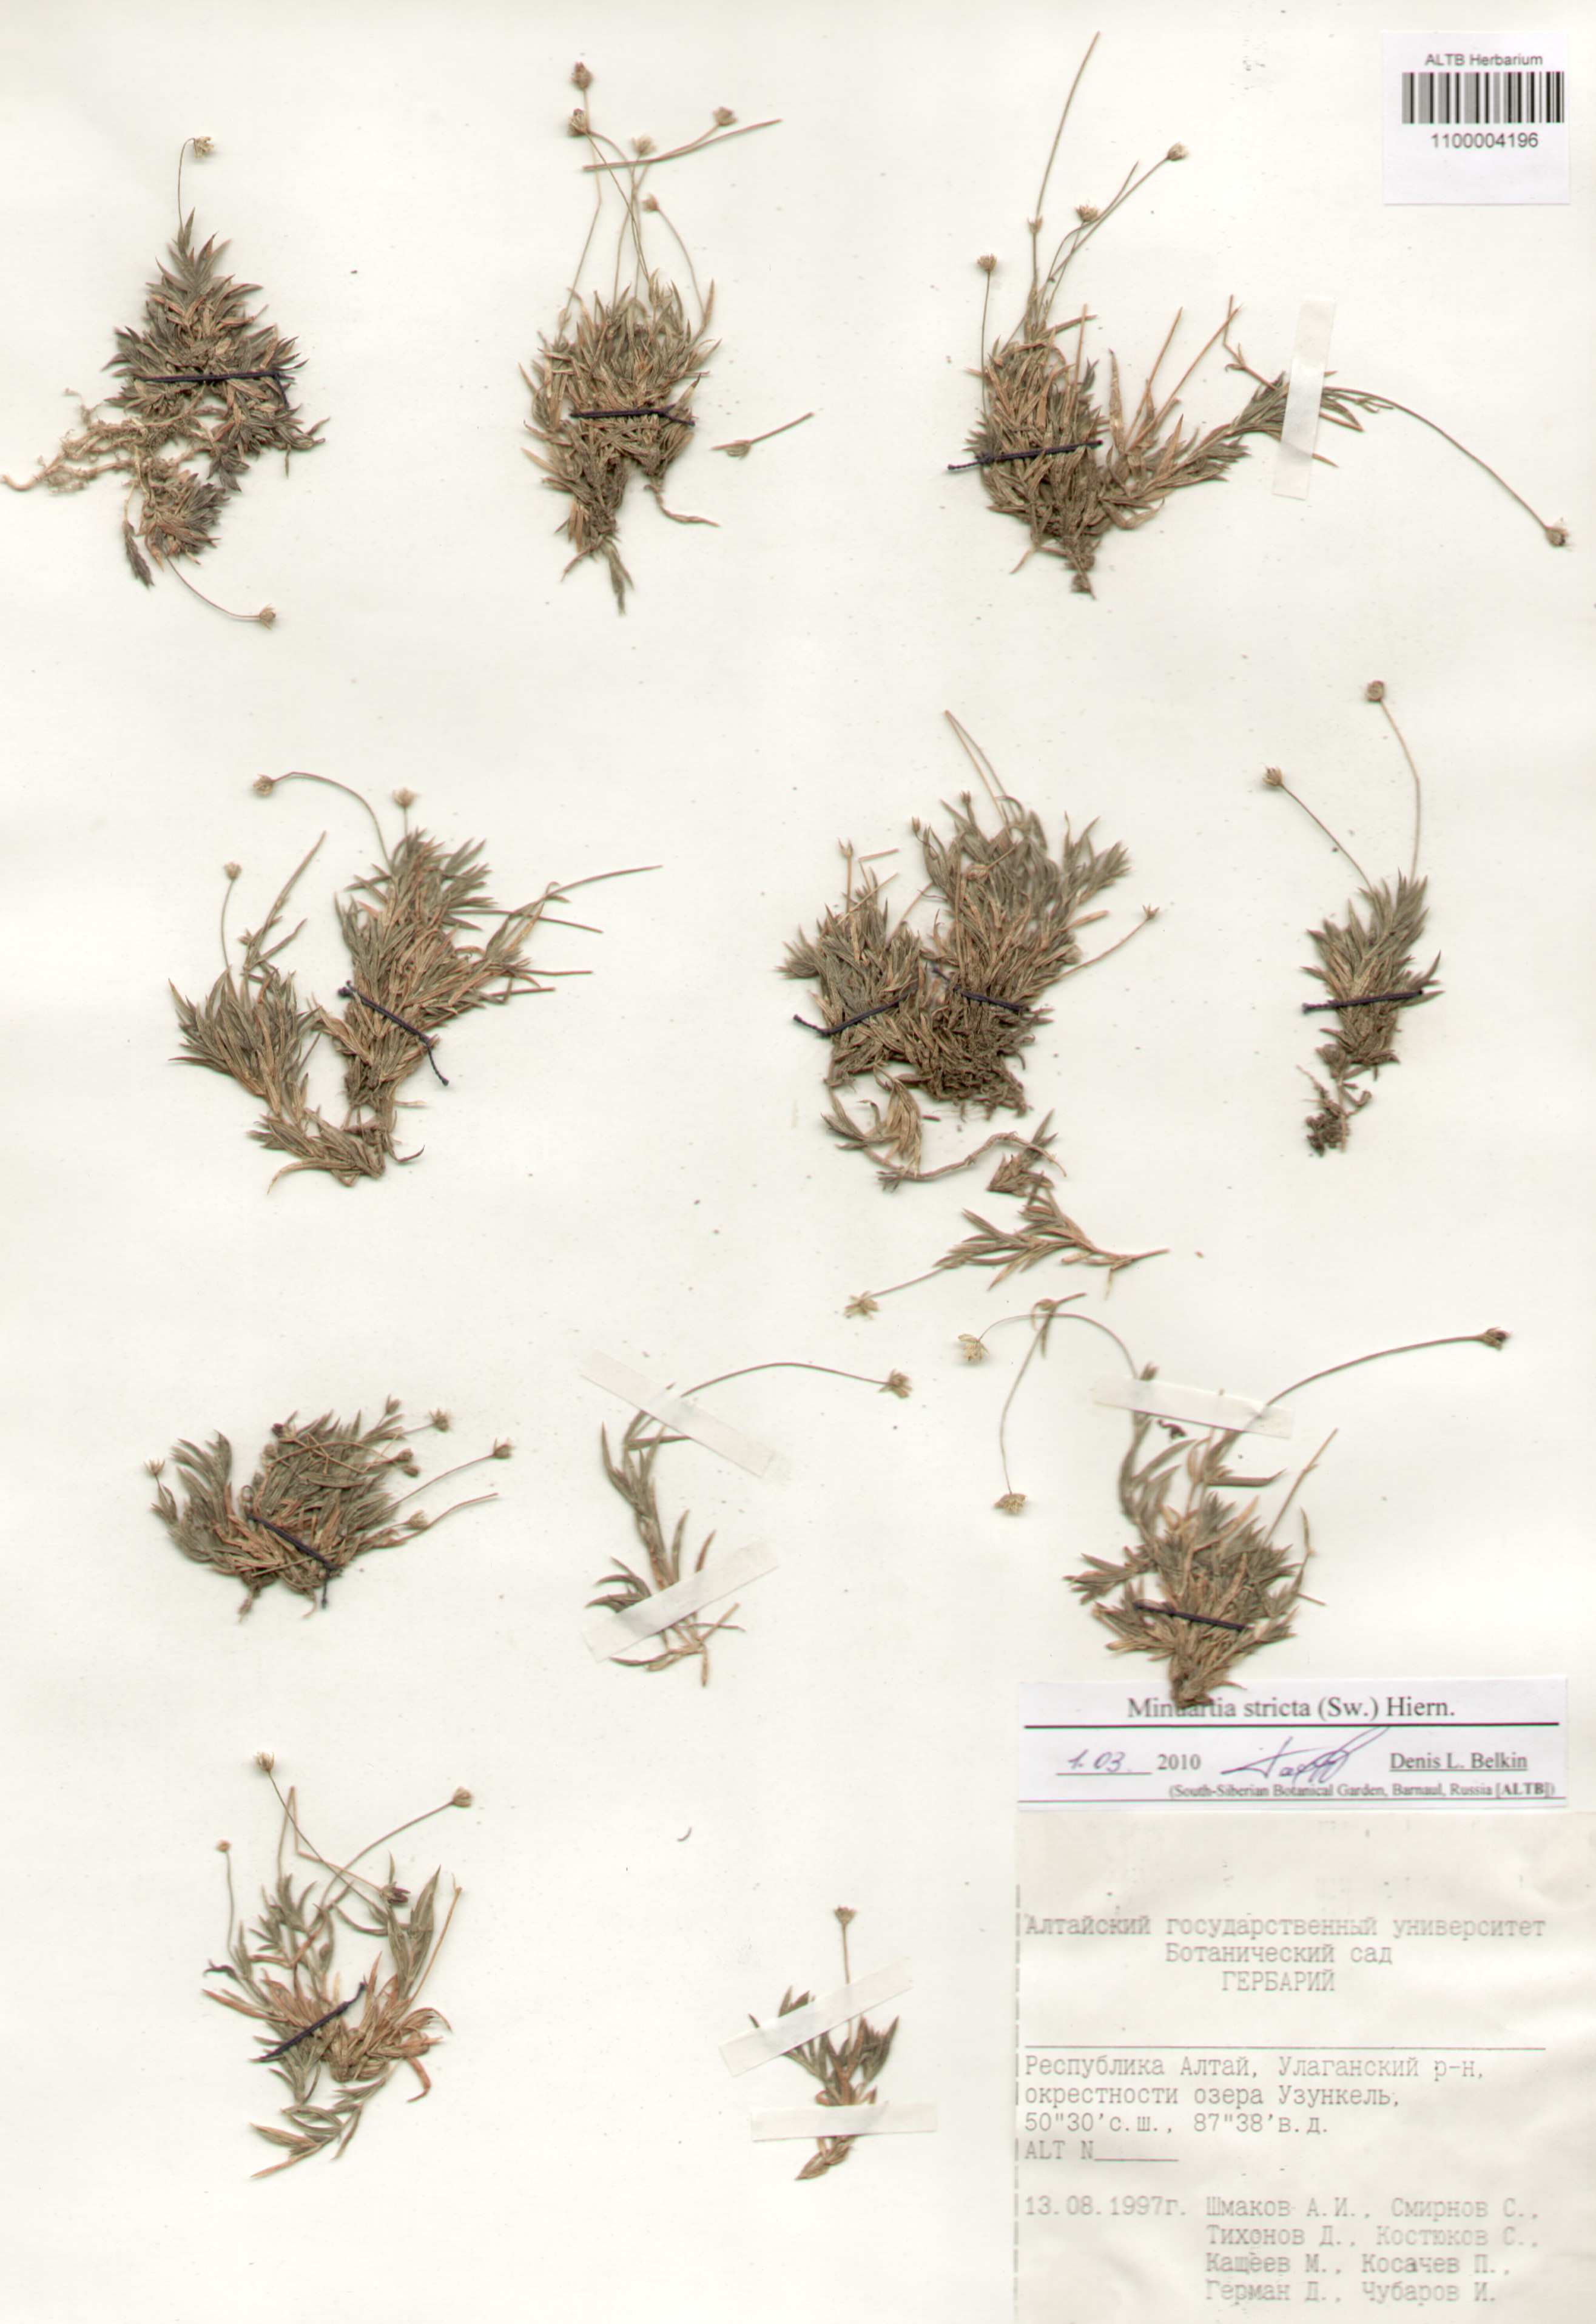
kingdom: Plantae
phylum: Tracheophyta
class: Magnoliopsida
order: Caryophyllales
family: Caryophyllaceae
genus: Sabulina
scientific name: Sabulina stricta
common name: Bog sandwort
